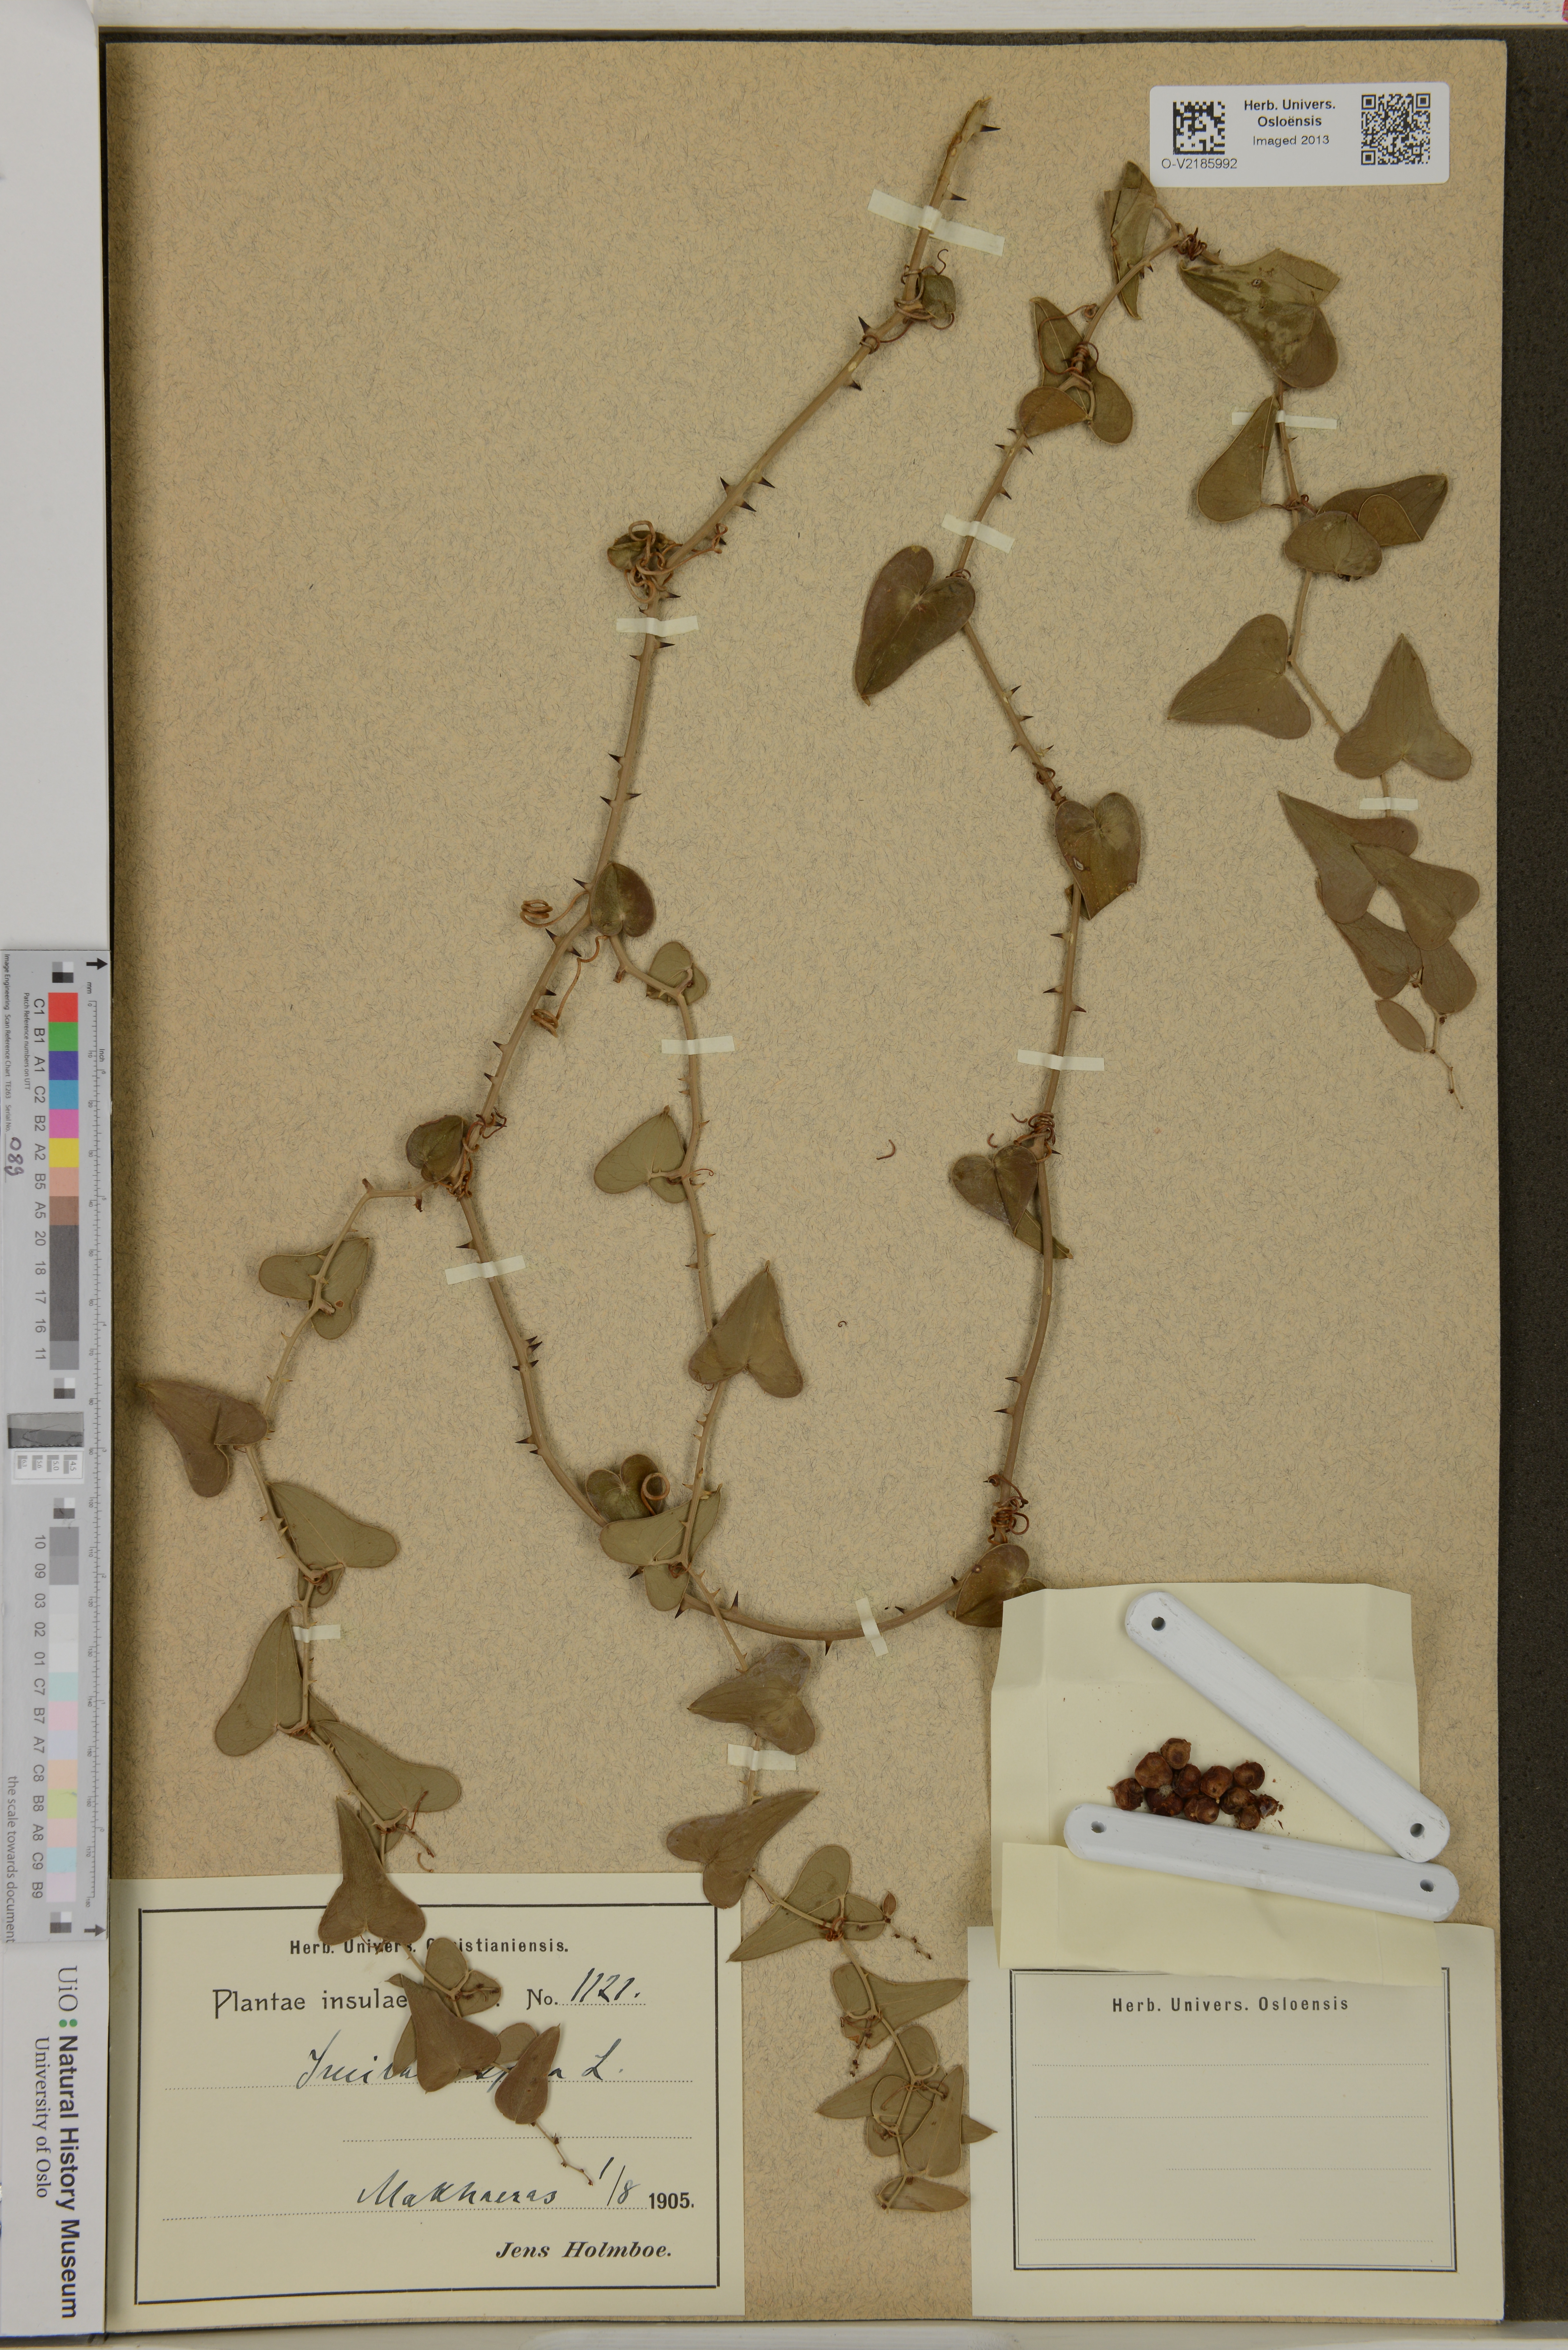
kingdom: Plantae
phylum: Tracheophyta
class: Liliopsida
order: Liliales
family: Smilacaceae
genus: Smilax
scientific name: Smilax aspera
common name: Common smilax
